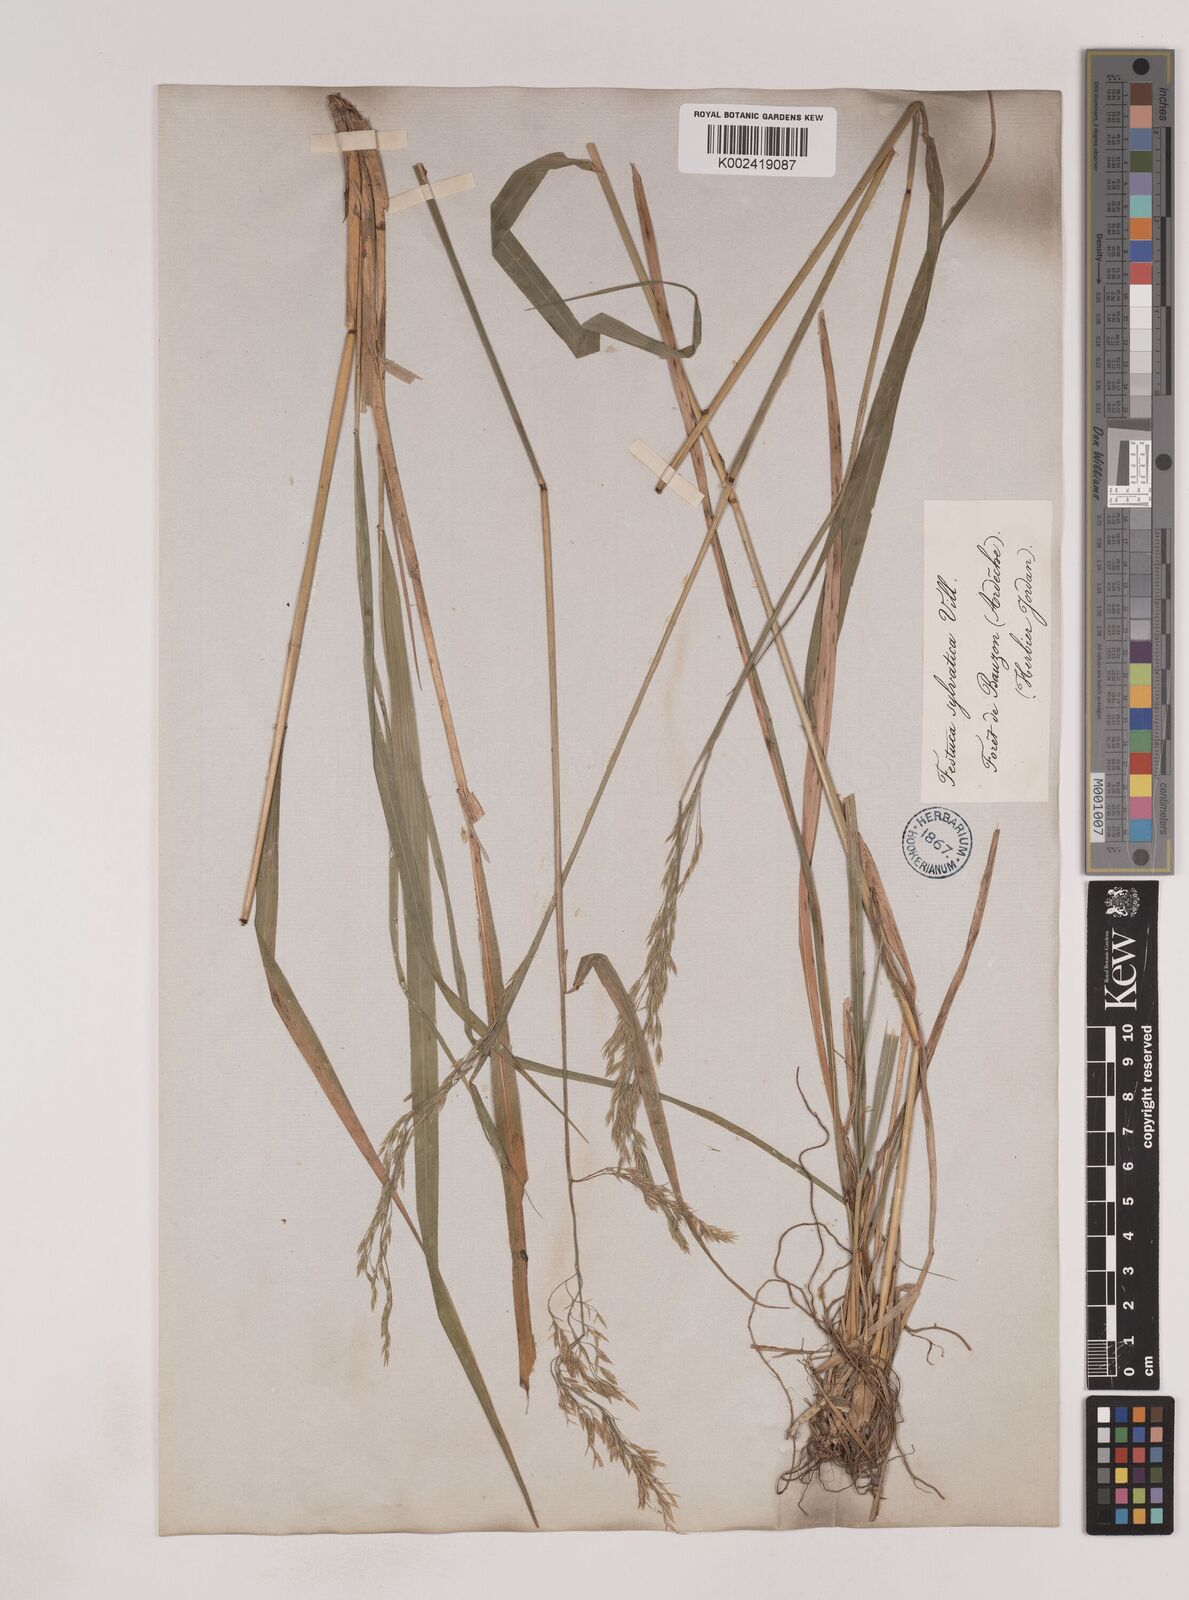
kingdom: Plantae
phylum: Tracheophyta
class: Liliopsida
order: Poales
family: Poaceae
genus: Festuca
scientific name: Festuca drymeja
